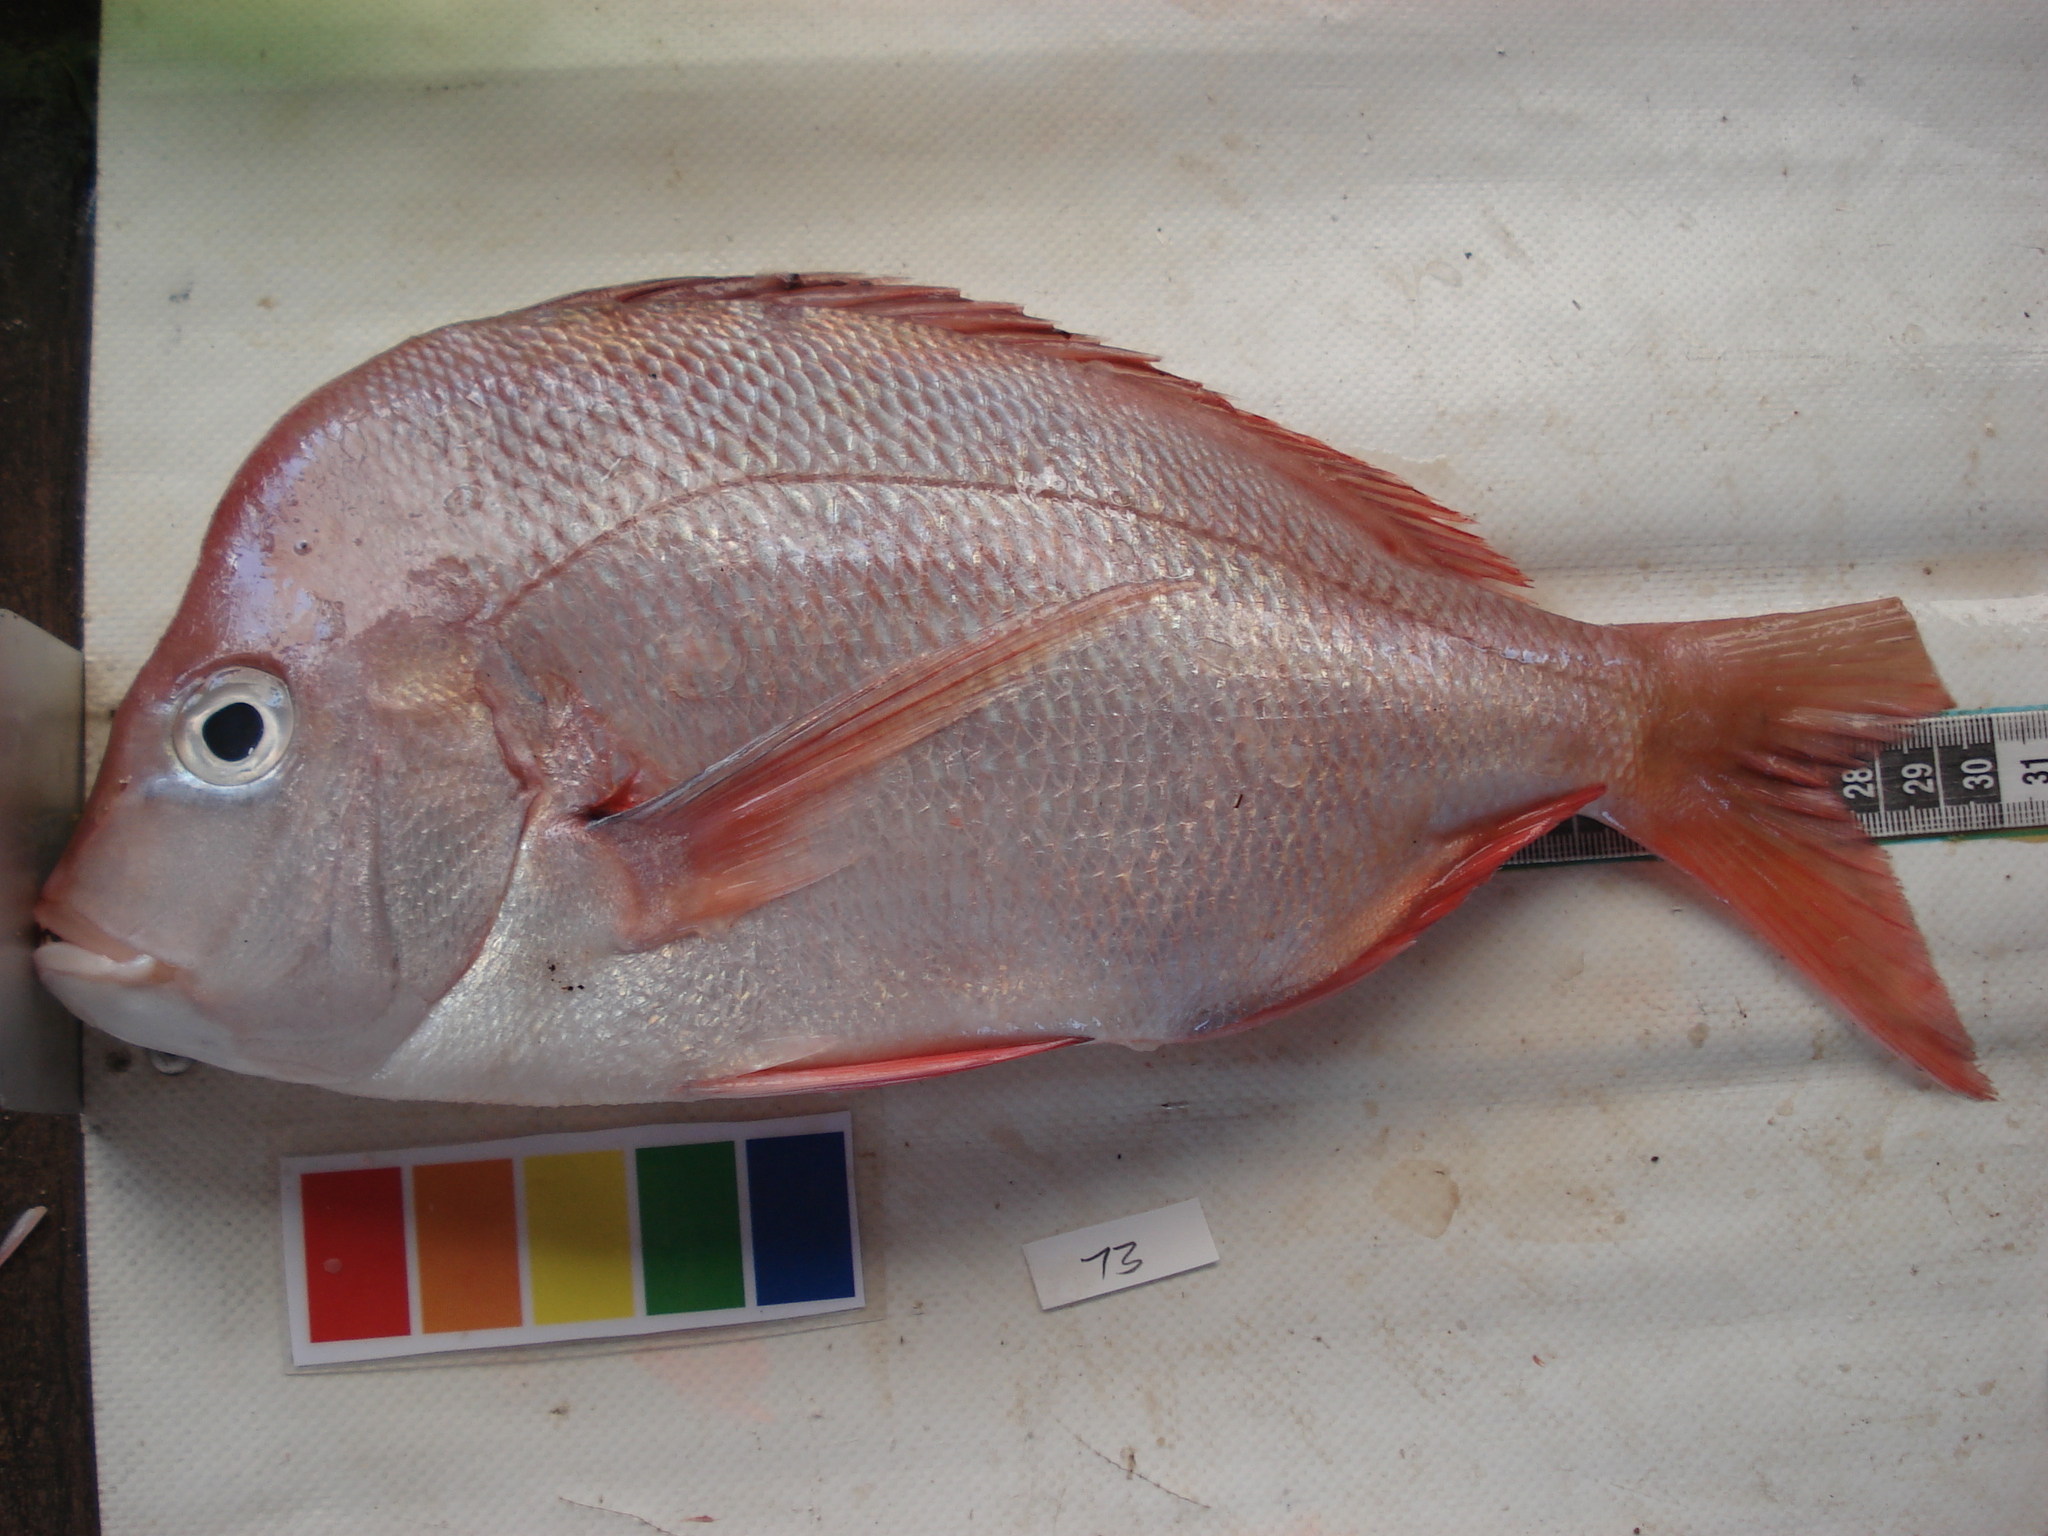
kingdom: Animalia
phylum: Chordata
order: Perciformes
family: Sparidae
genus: Chrysoblephus
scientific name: Chrysoblephus puniceus
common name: Slinger seabream
